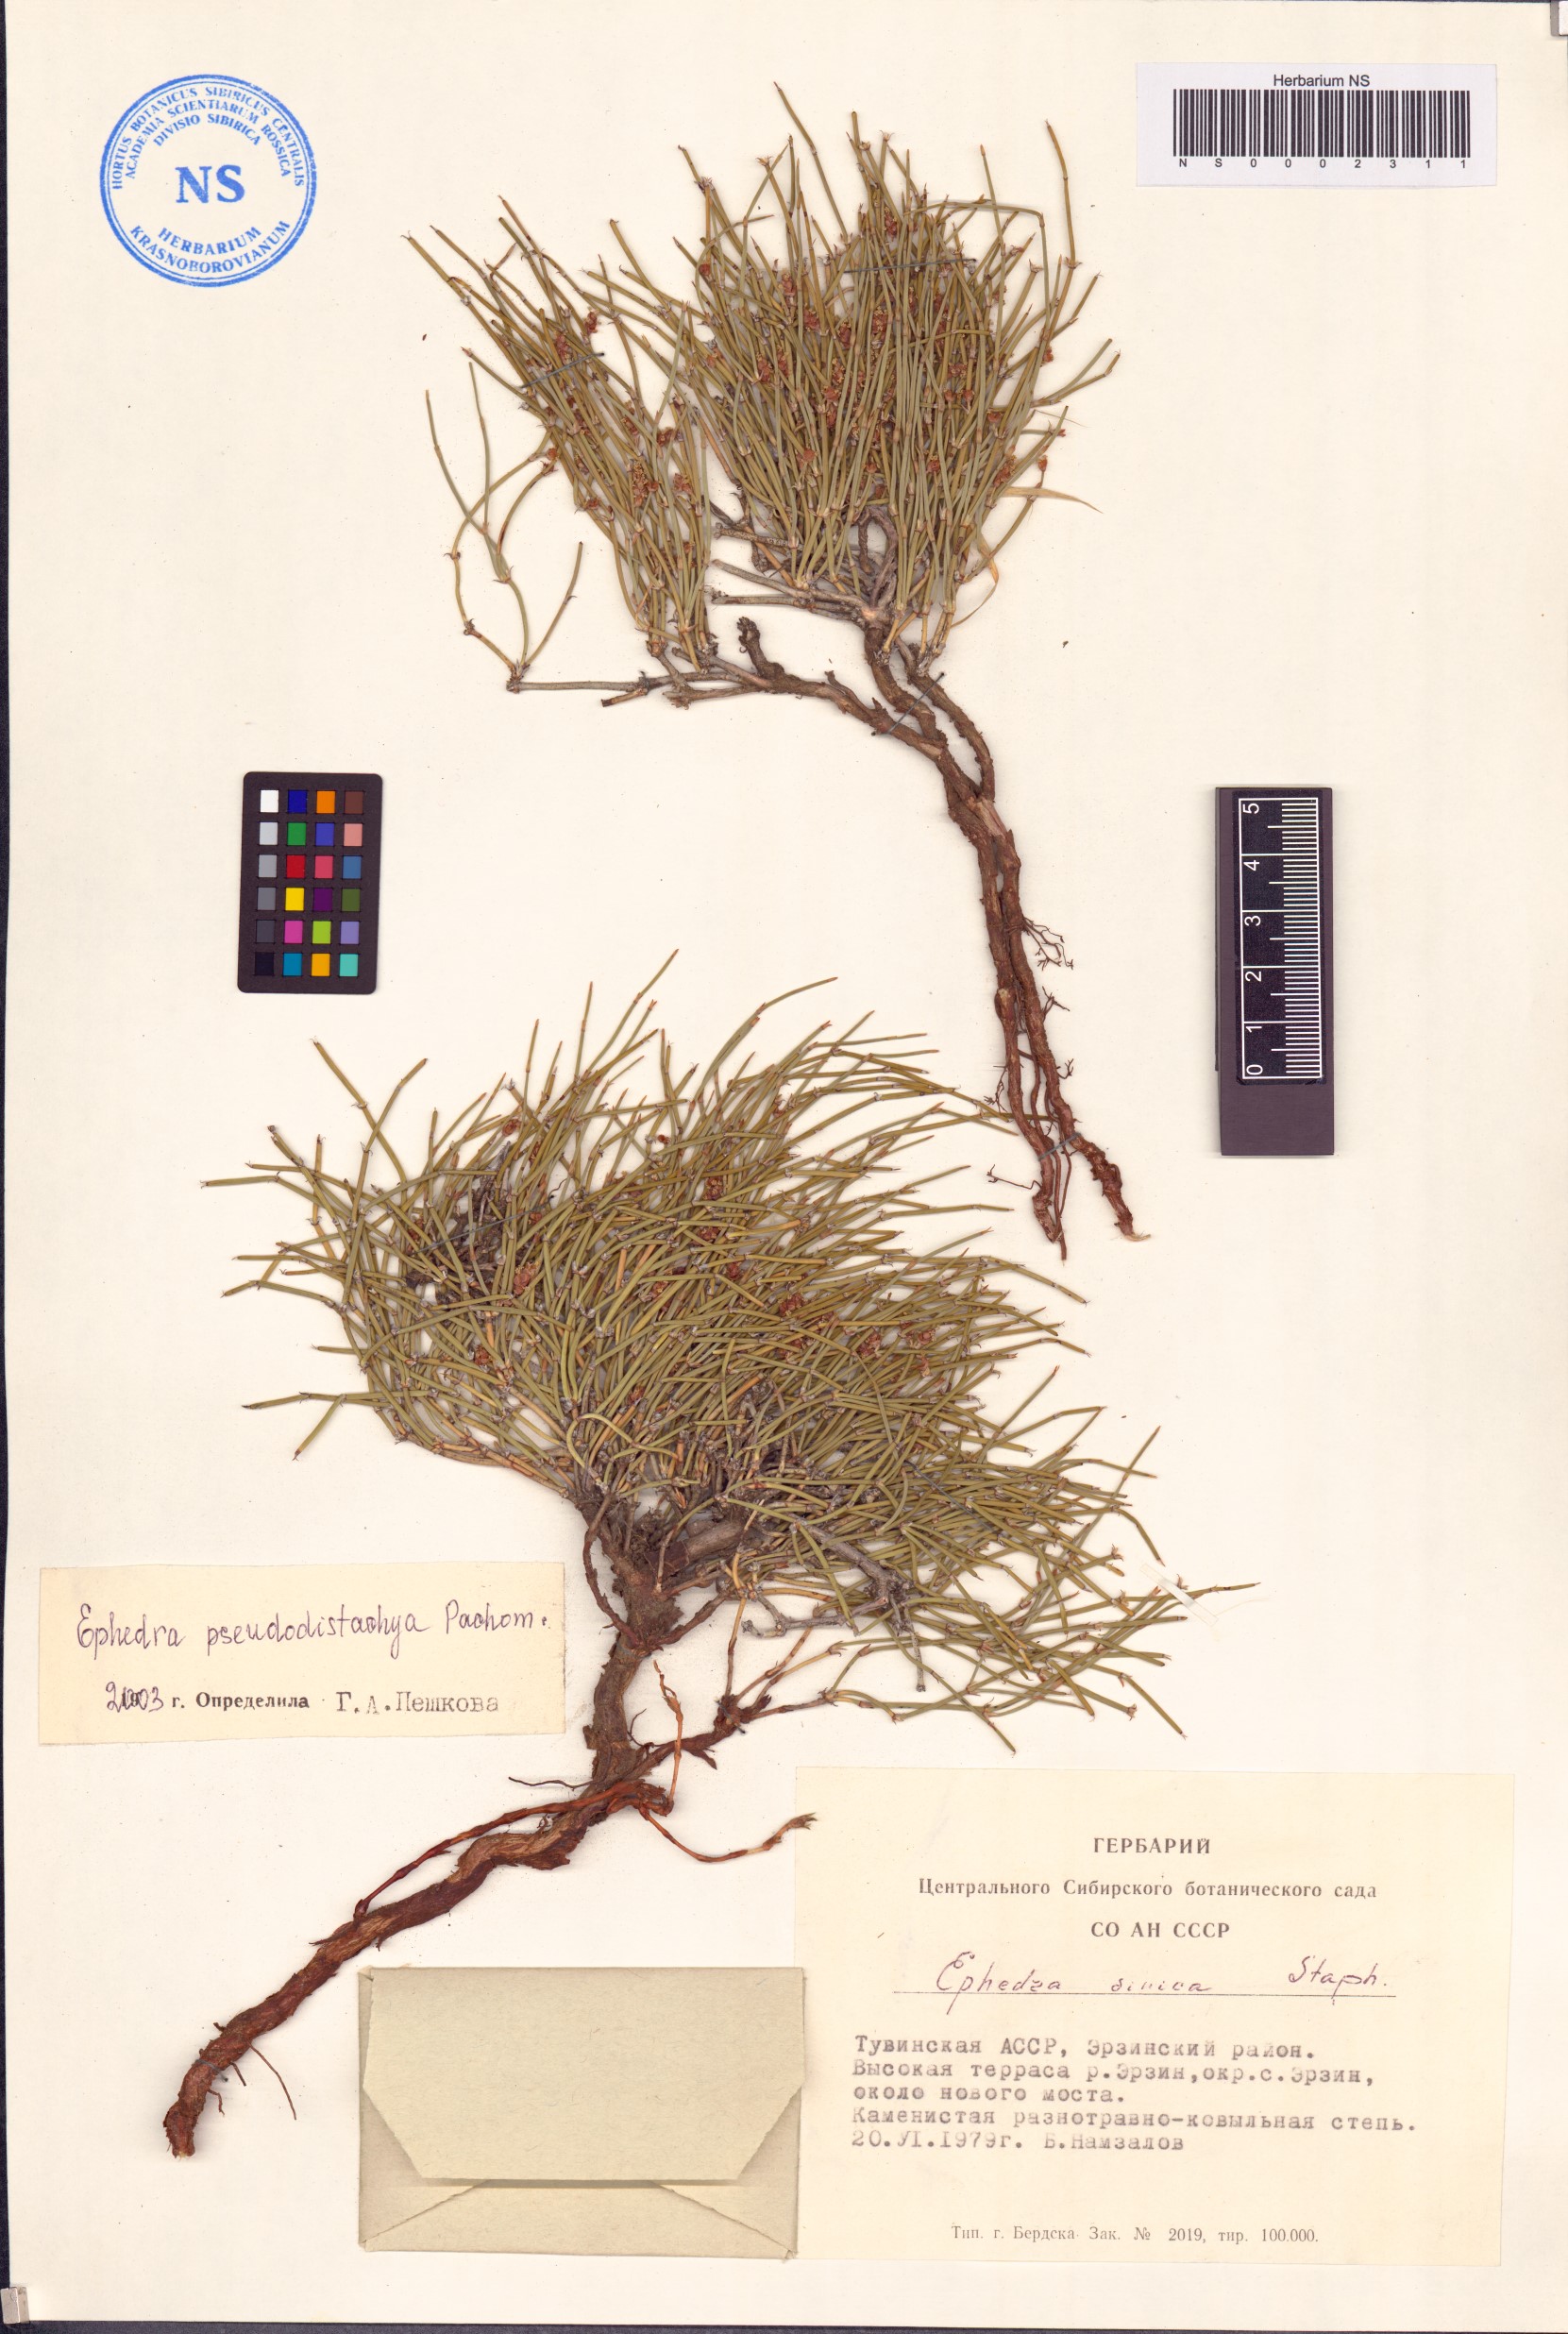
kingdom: Plantae
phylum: Tracheophyta
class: Gnetopsida
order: Ephedrales
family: Ephedraceae
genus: Ephedra
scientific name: Ephedra pseudodistachya
